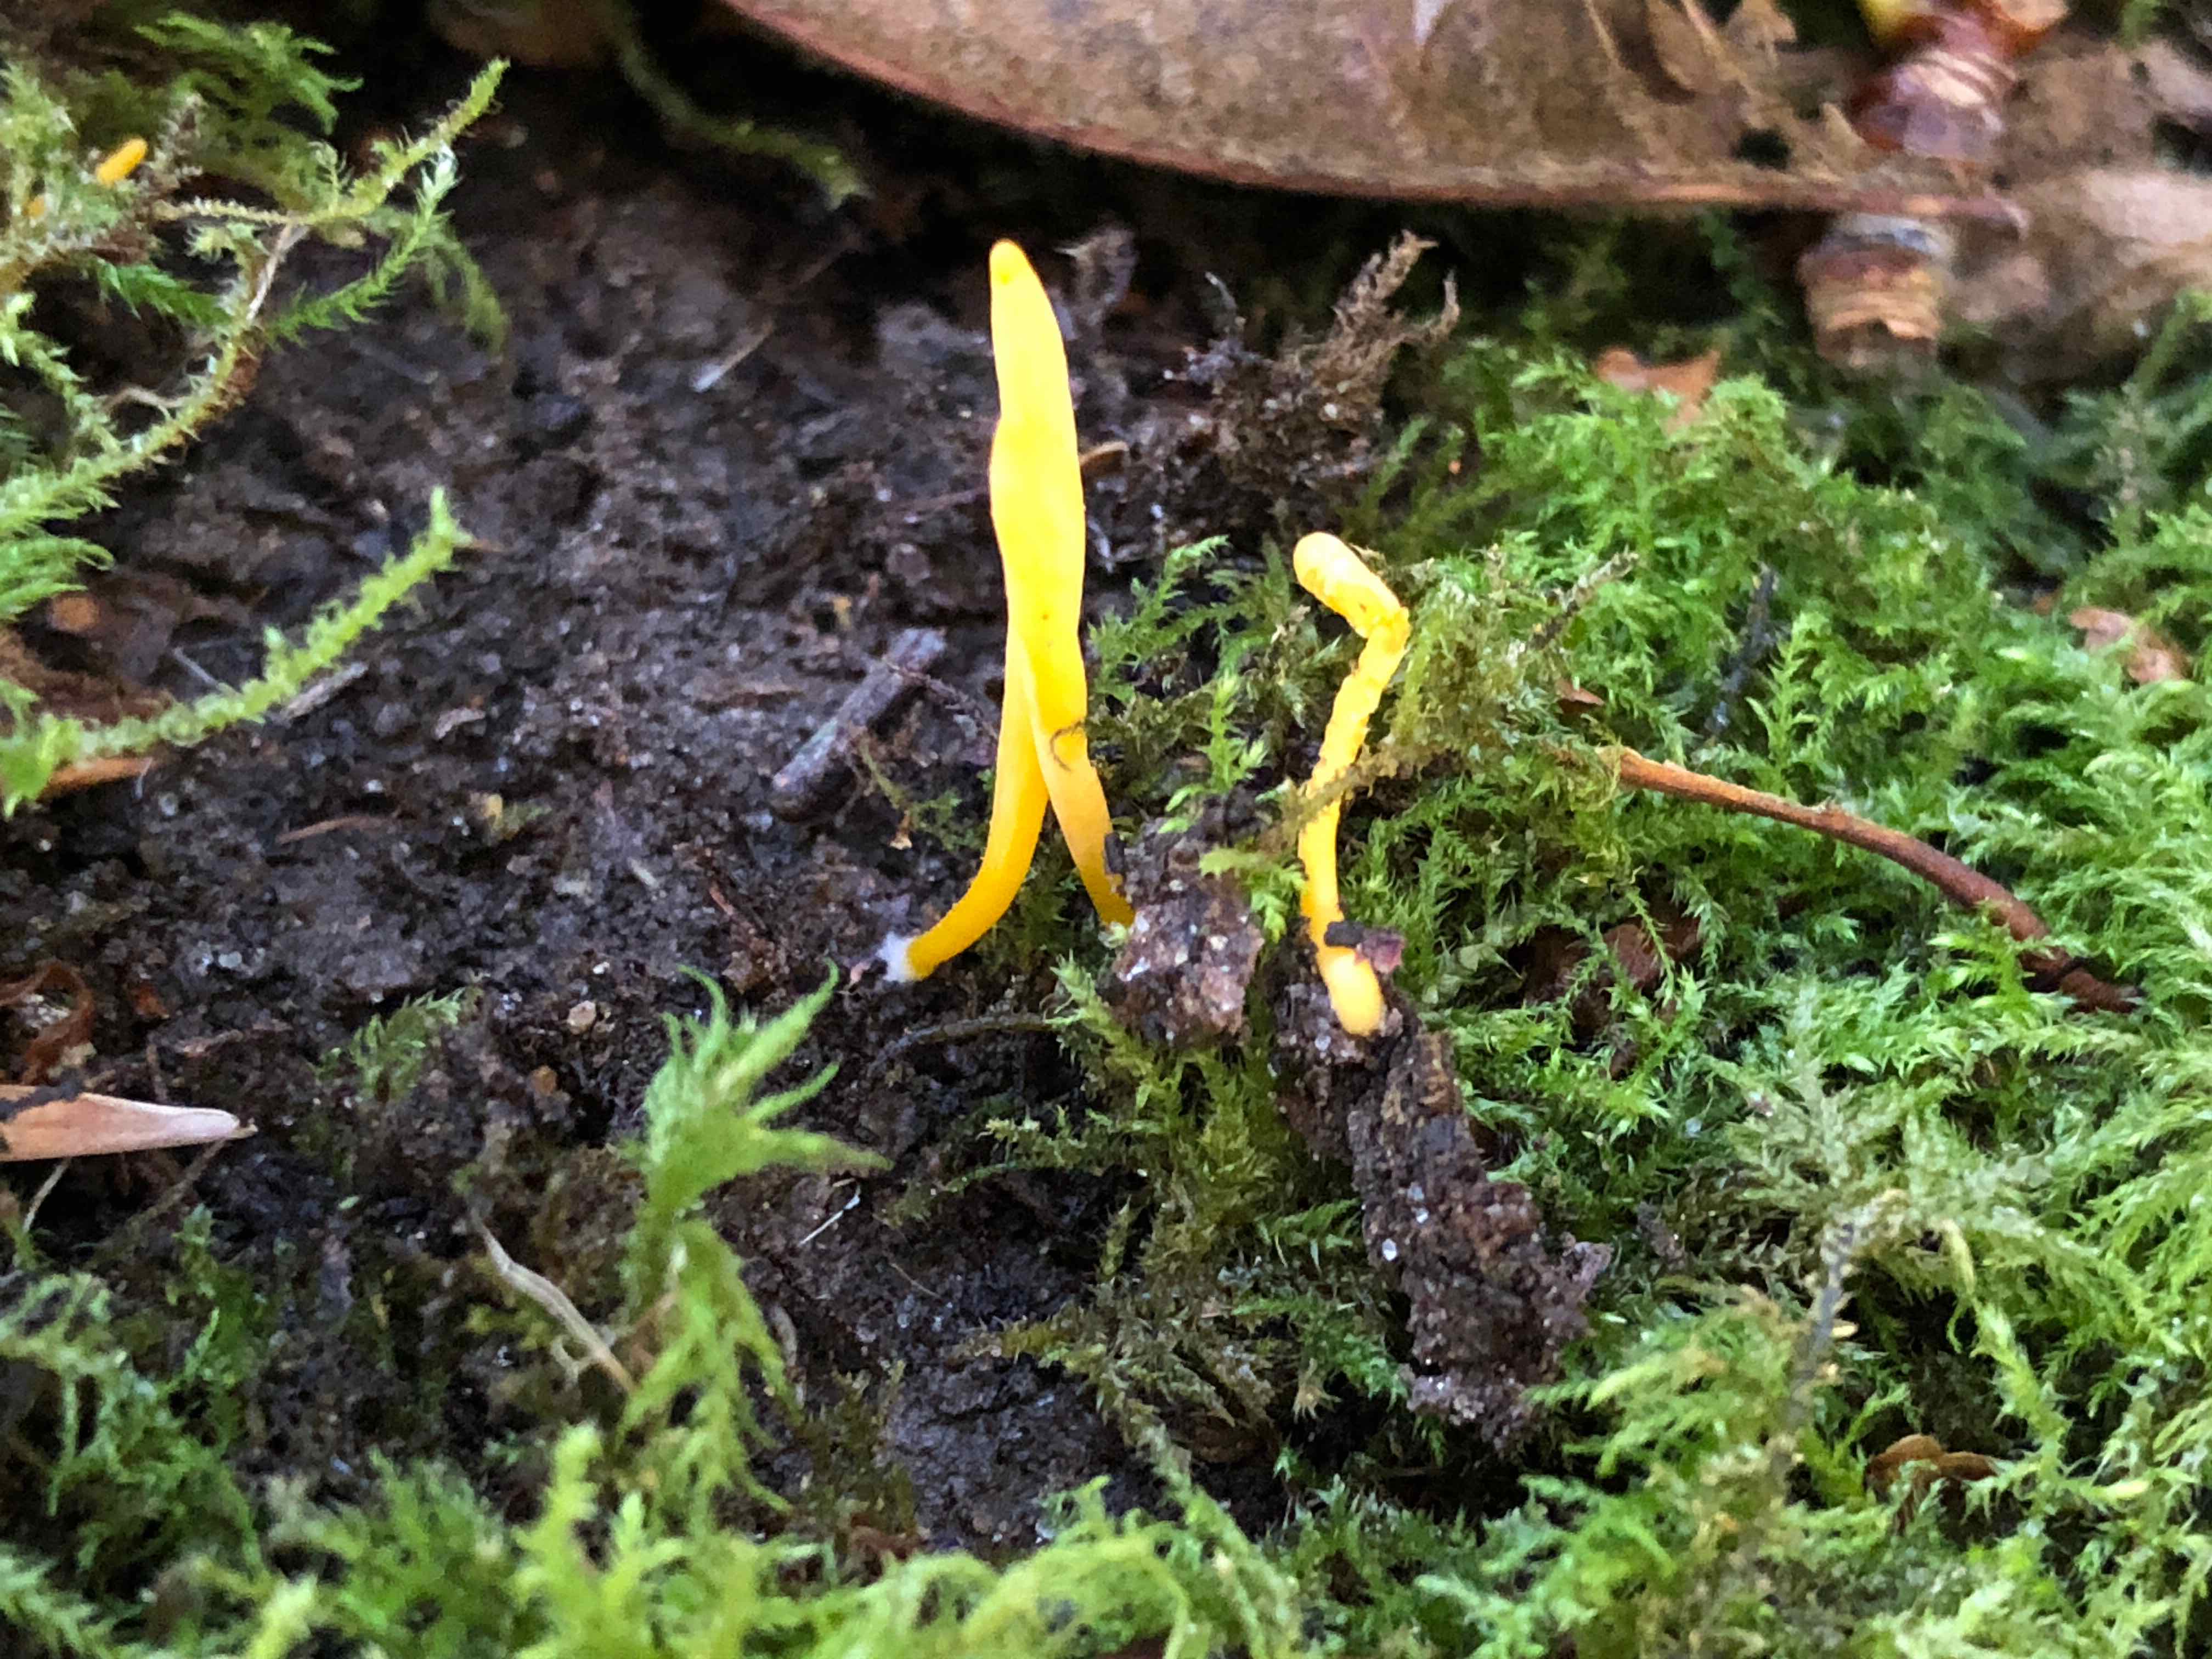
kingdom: Fungi
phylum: Basidiomycota
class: Agaricomycetes
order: Agaricales
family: Clavariaceae
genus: Clavulinopsis
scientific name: Clavulinopsis luteoalba
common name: abrikos-køllesvamp
